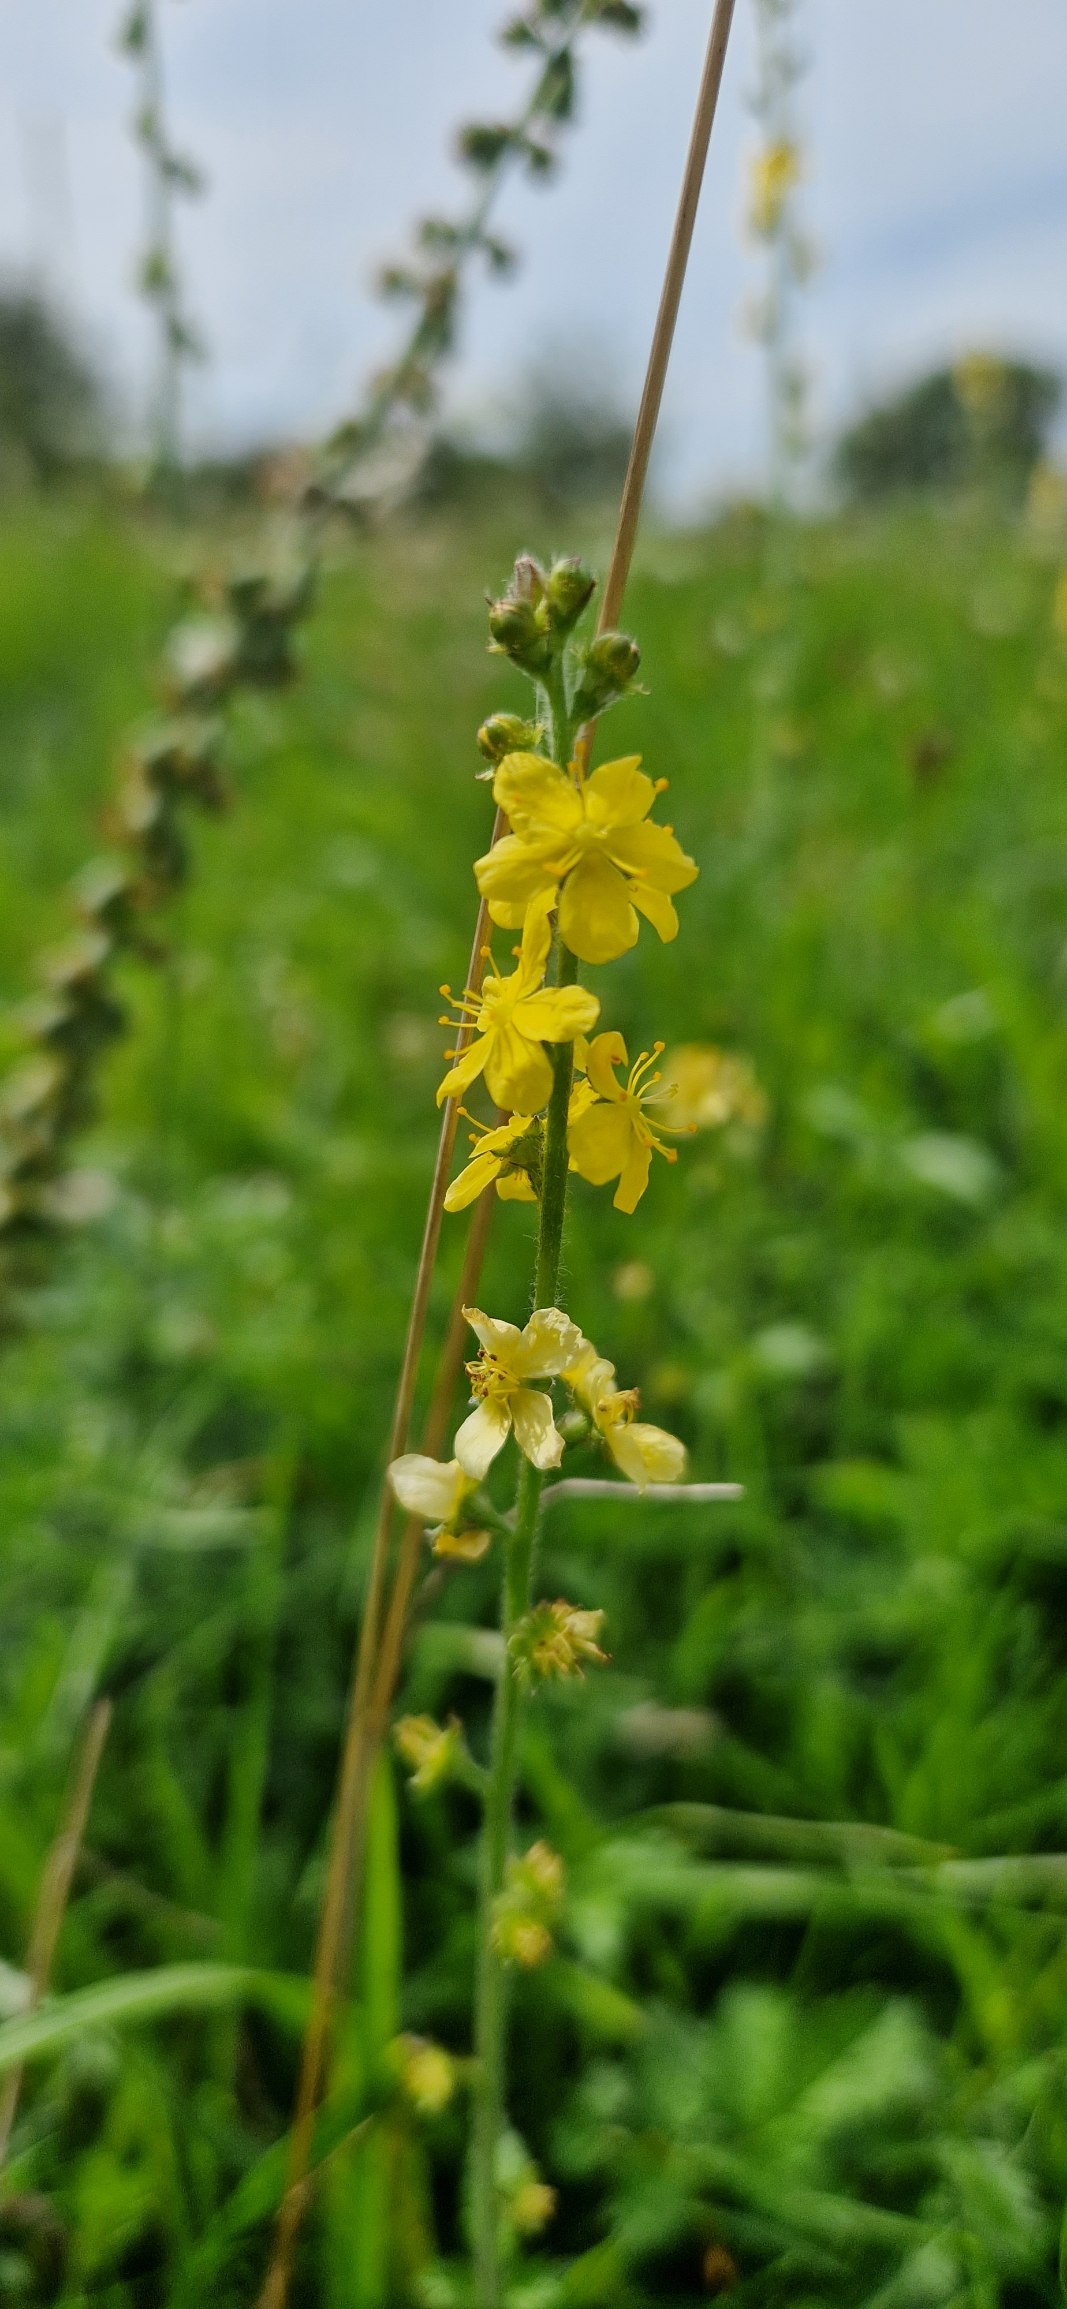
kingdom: Plantae
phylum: Tracheophyta
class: Magnoliopsida
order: Rosales
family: Rosaceae
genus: Agrimonia
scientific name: Agrimonia eupatoria
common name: Almindelig agermåne
